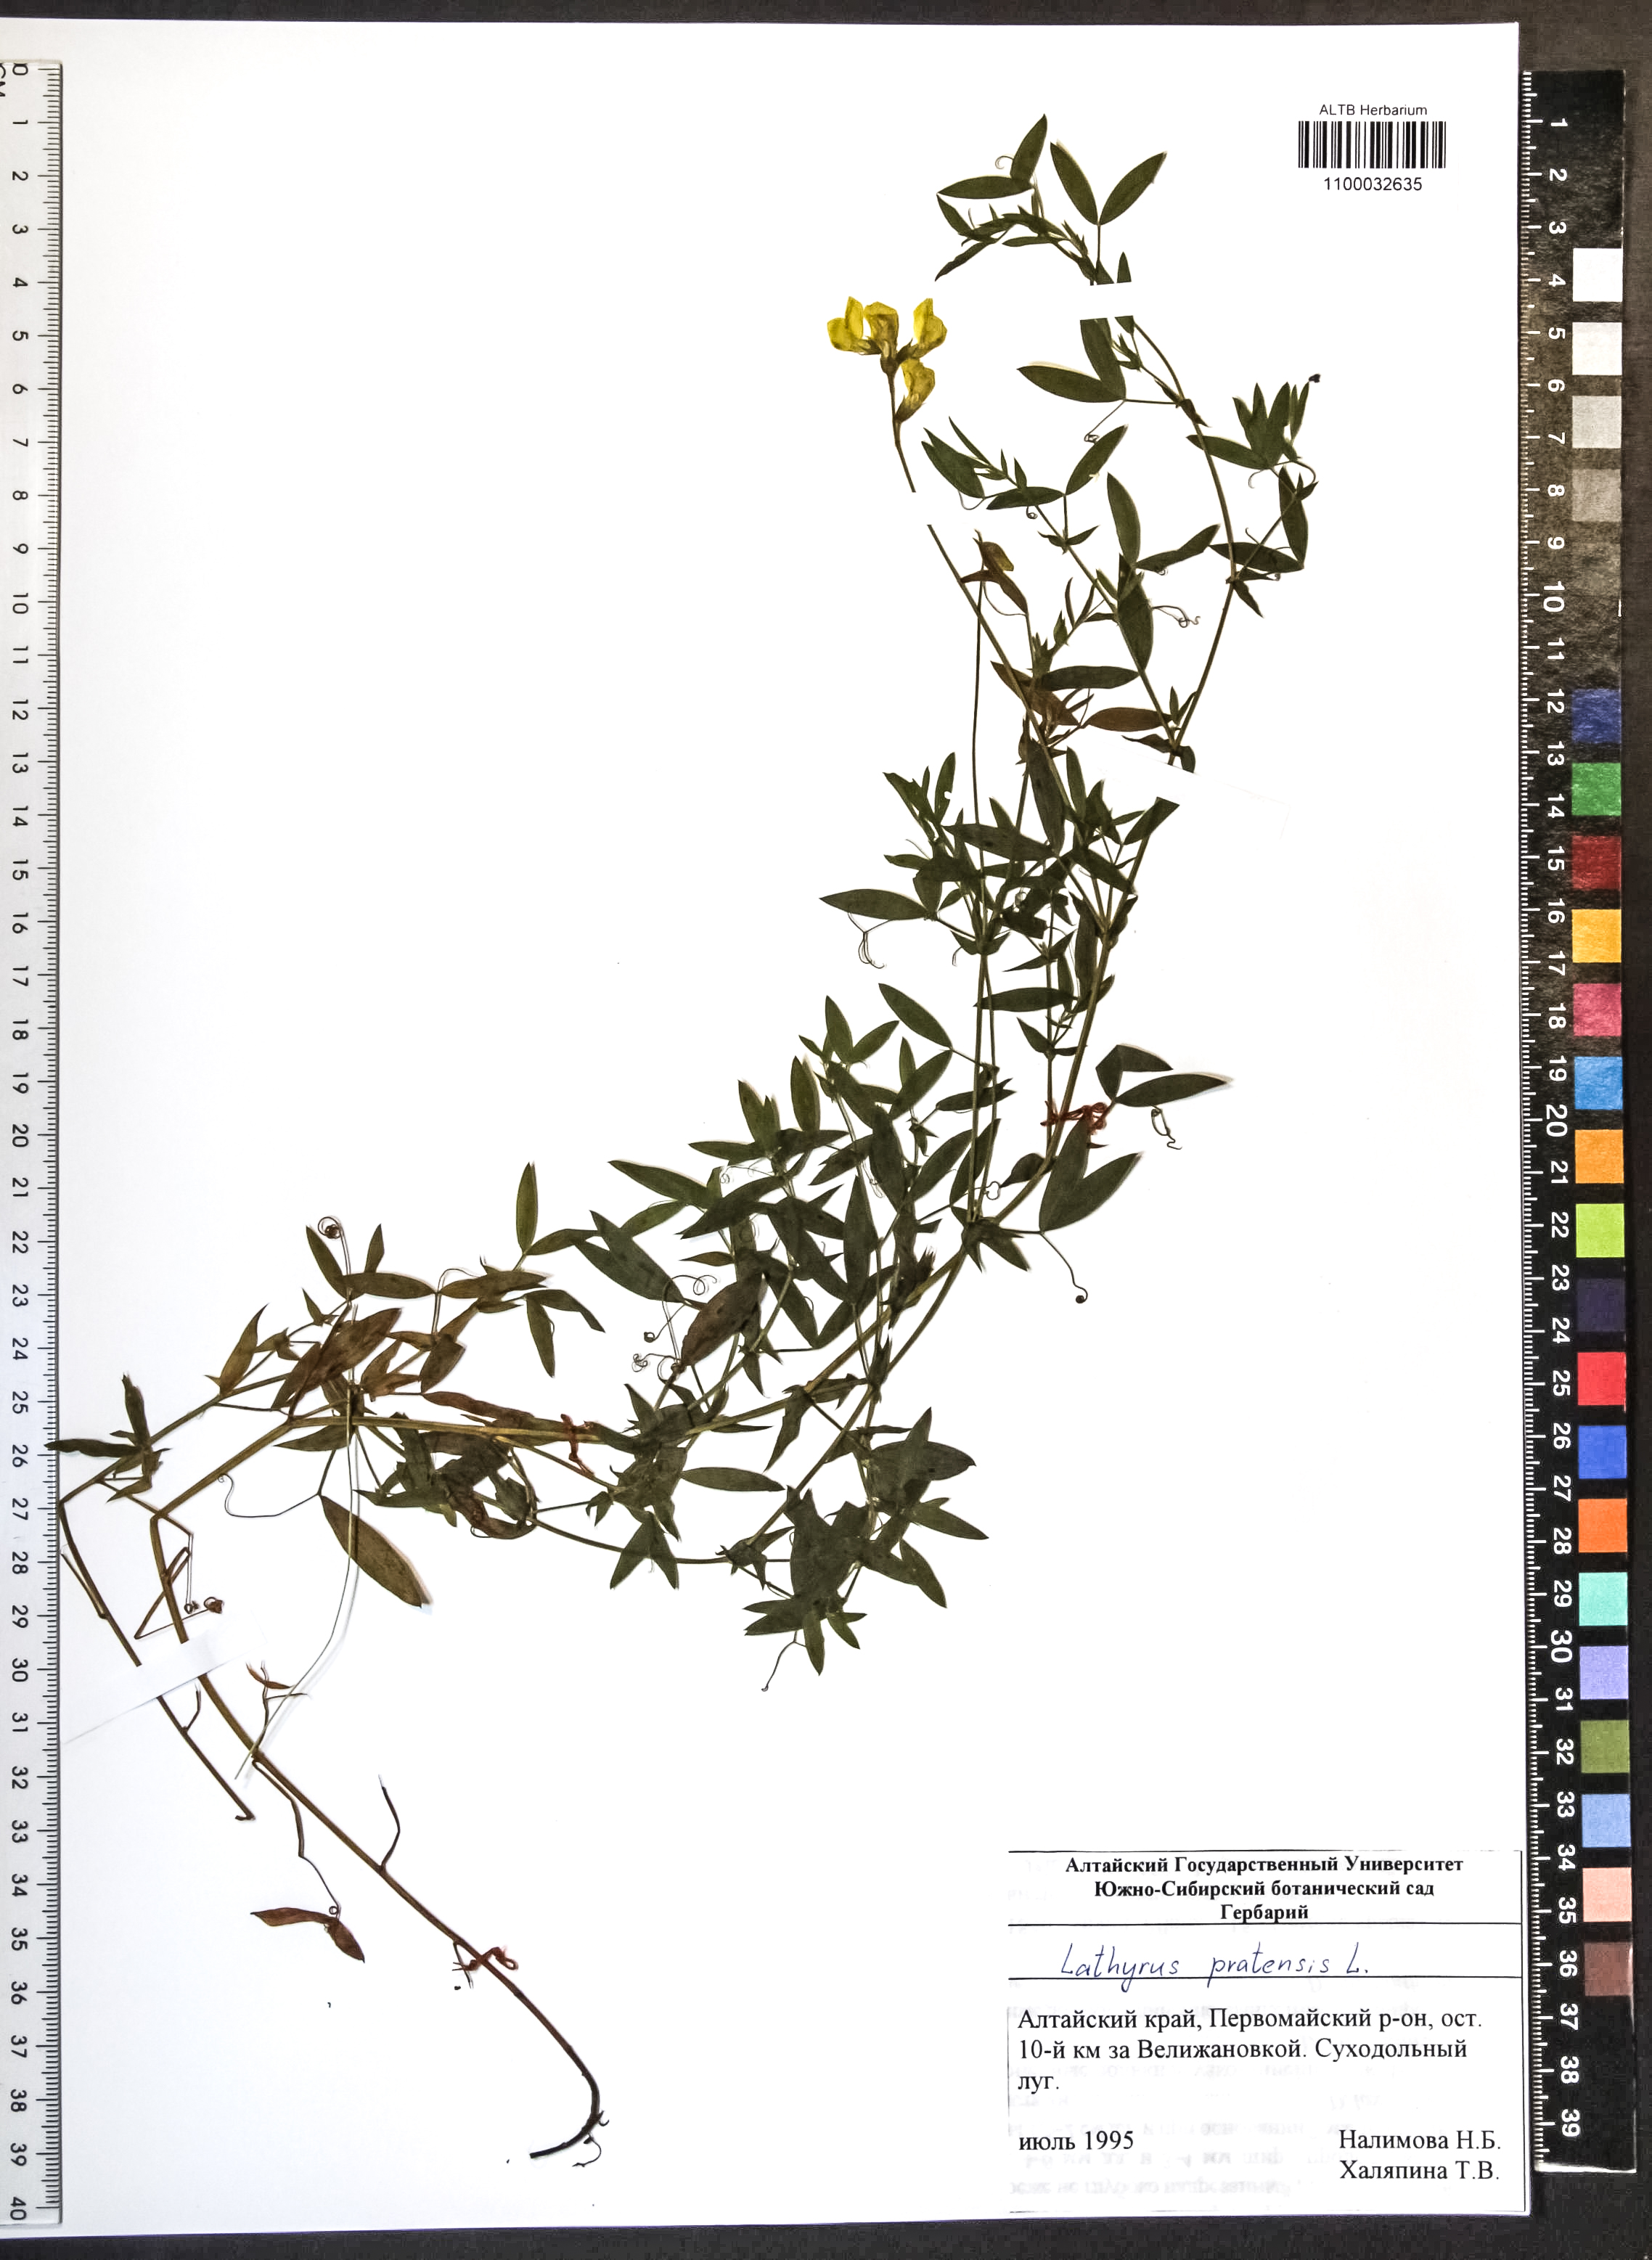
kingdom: Plantae
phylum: Tracheophyta
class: Magnoliopsida
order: Fabales
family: Fabaceae
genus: Lathyrus
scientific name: Lathyrus pratensis
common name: Meadow vetchling
